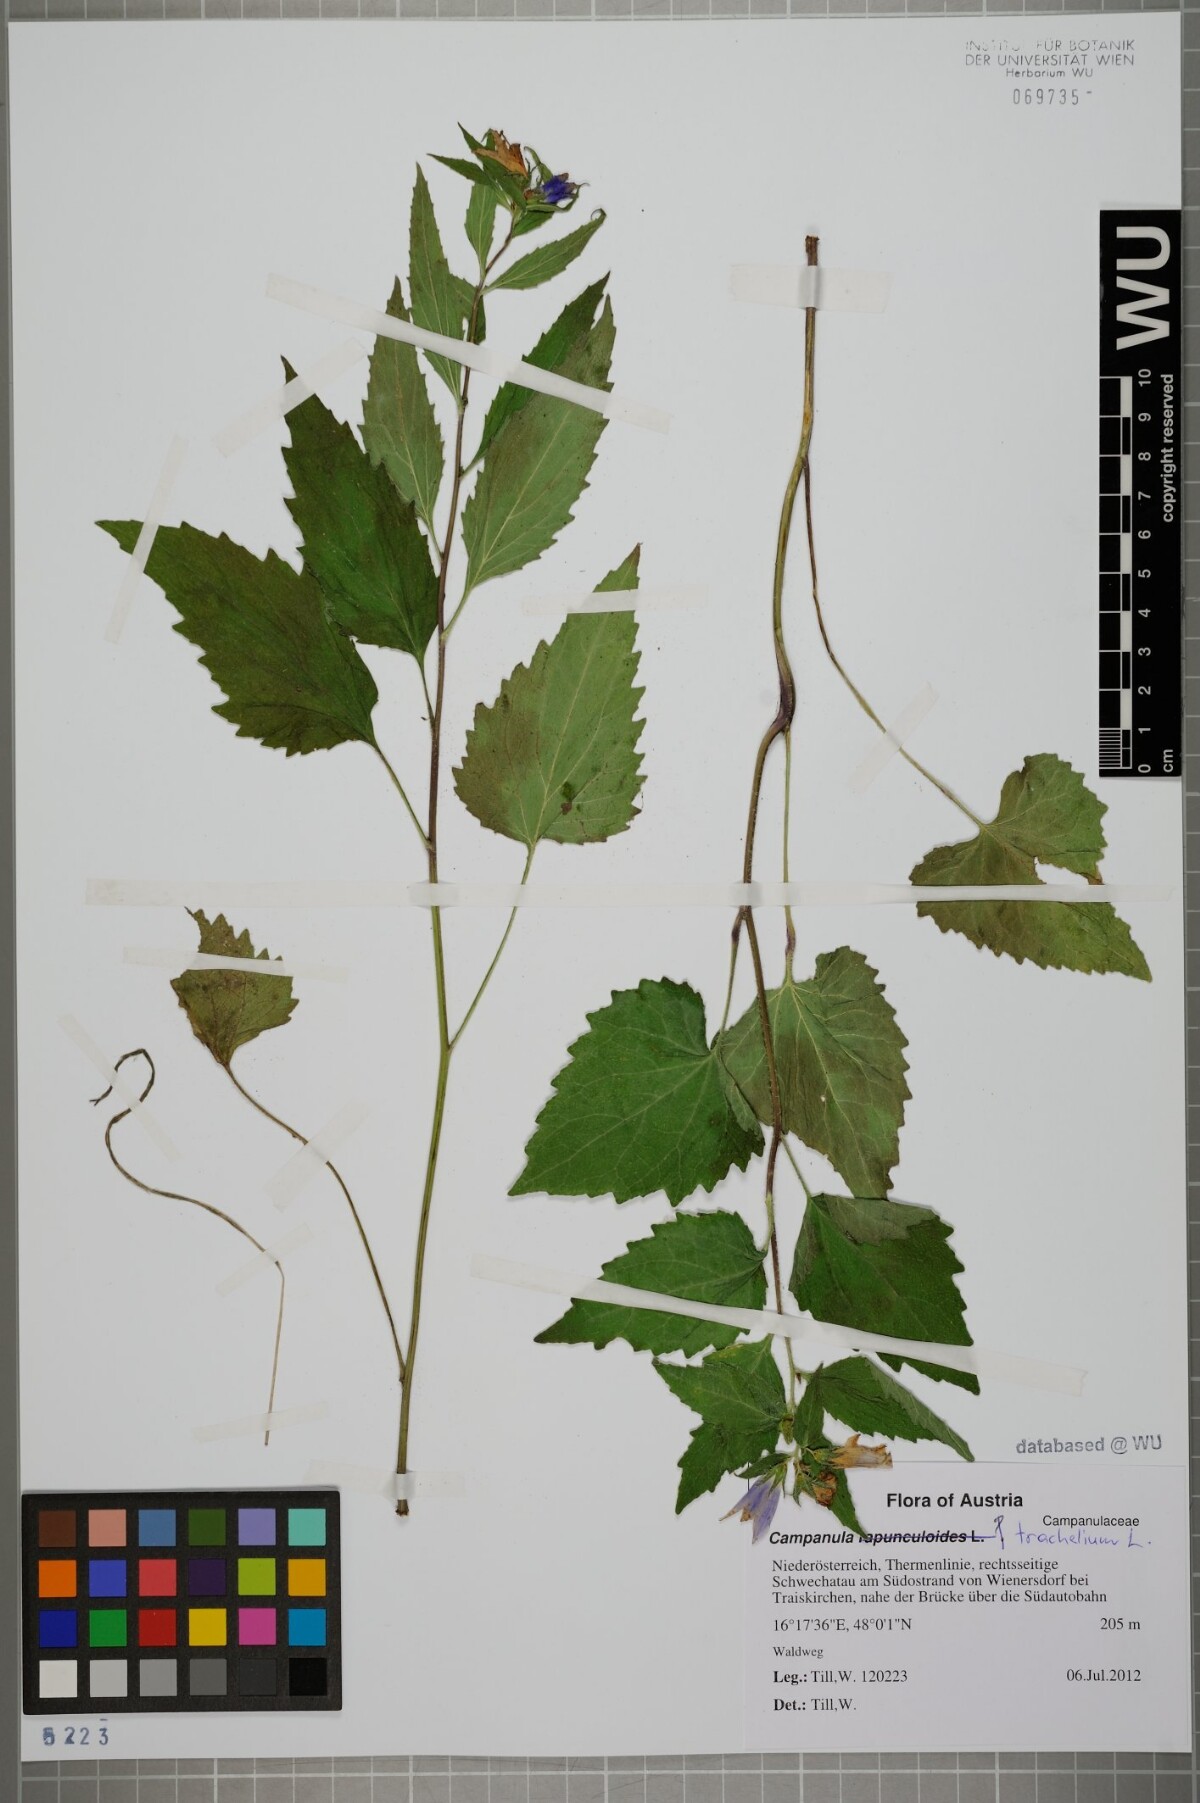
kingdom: Plantae
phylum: Tracheophyta
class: Magnoliopsida
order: Asterales
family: Campanulaceae
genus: Campanula
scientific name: Campanula trachelium
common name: Nettle-leaved bellflower
